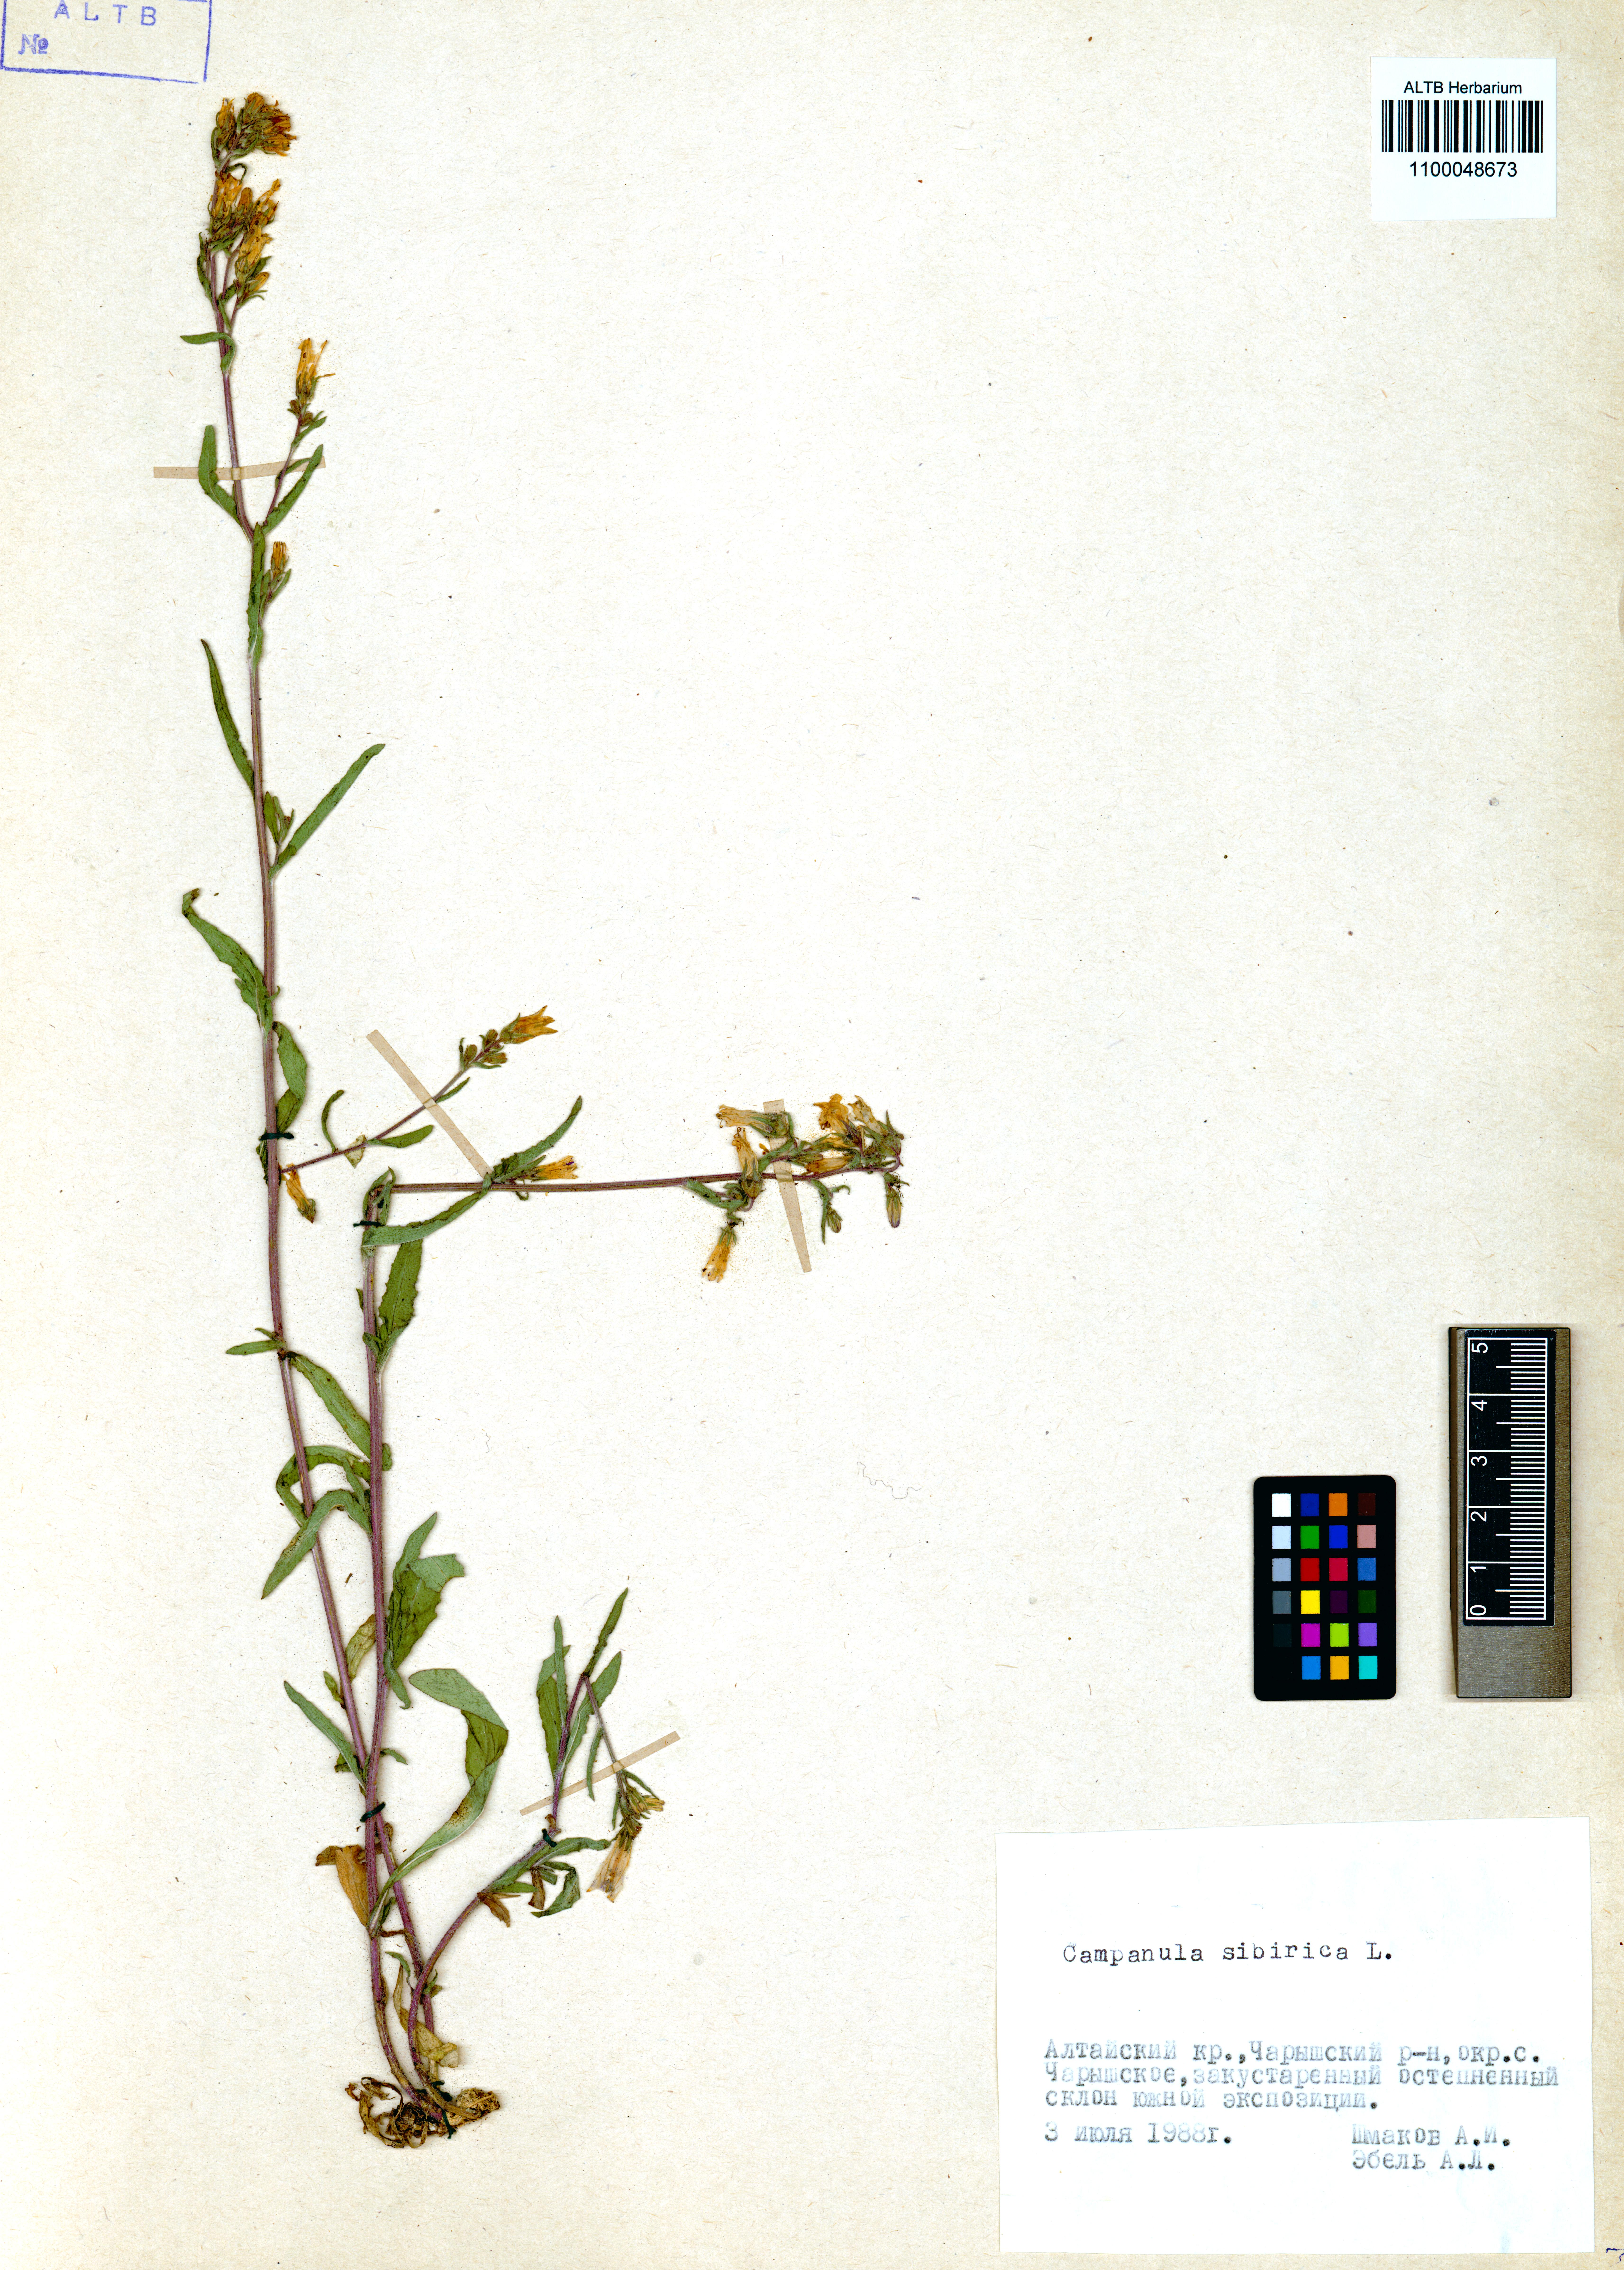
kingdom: Plantae
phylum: Tracheophyta
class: Magnoliopsida
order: Asterales
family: Campanulaceae
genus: Campanula
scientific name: Campanula sibirica
